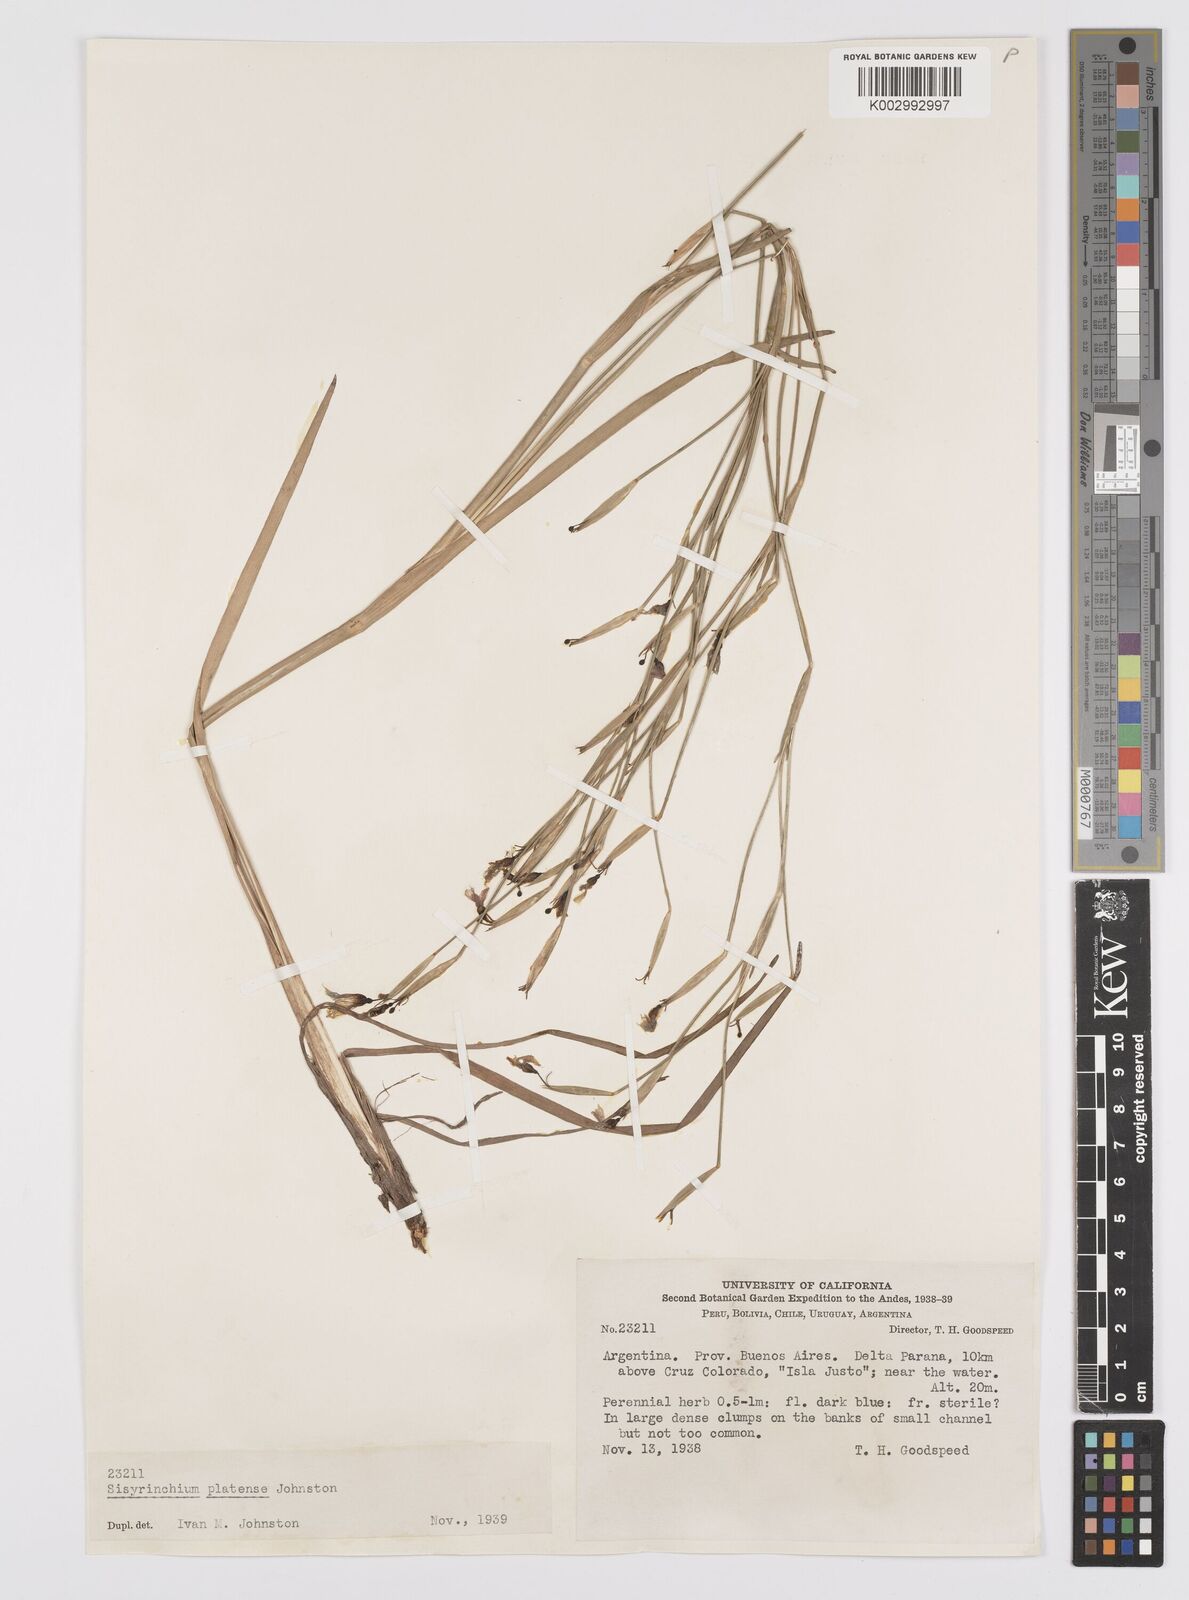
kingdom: Plantae
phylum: Tracheophyta
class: Liliopsida
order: Asparagales
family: Iridaceae
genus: Sisyrinchium
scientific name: Sisyrinchium platense
